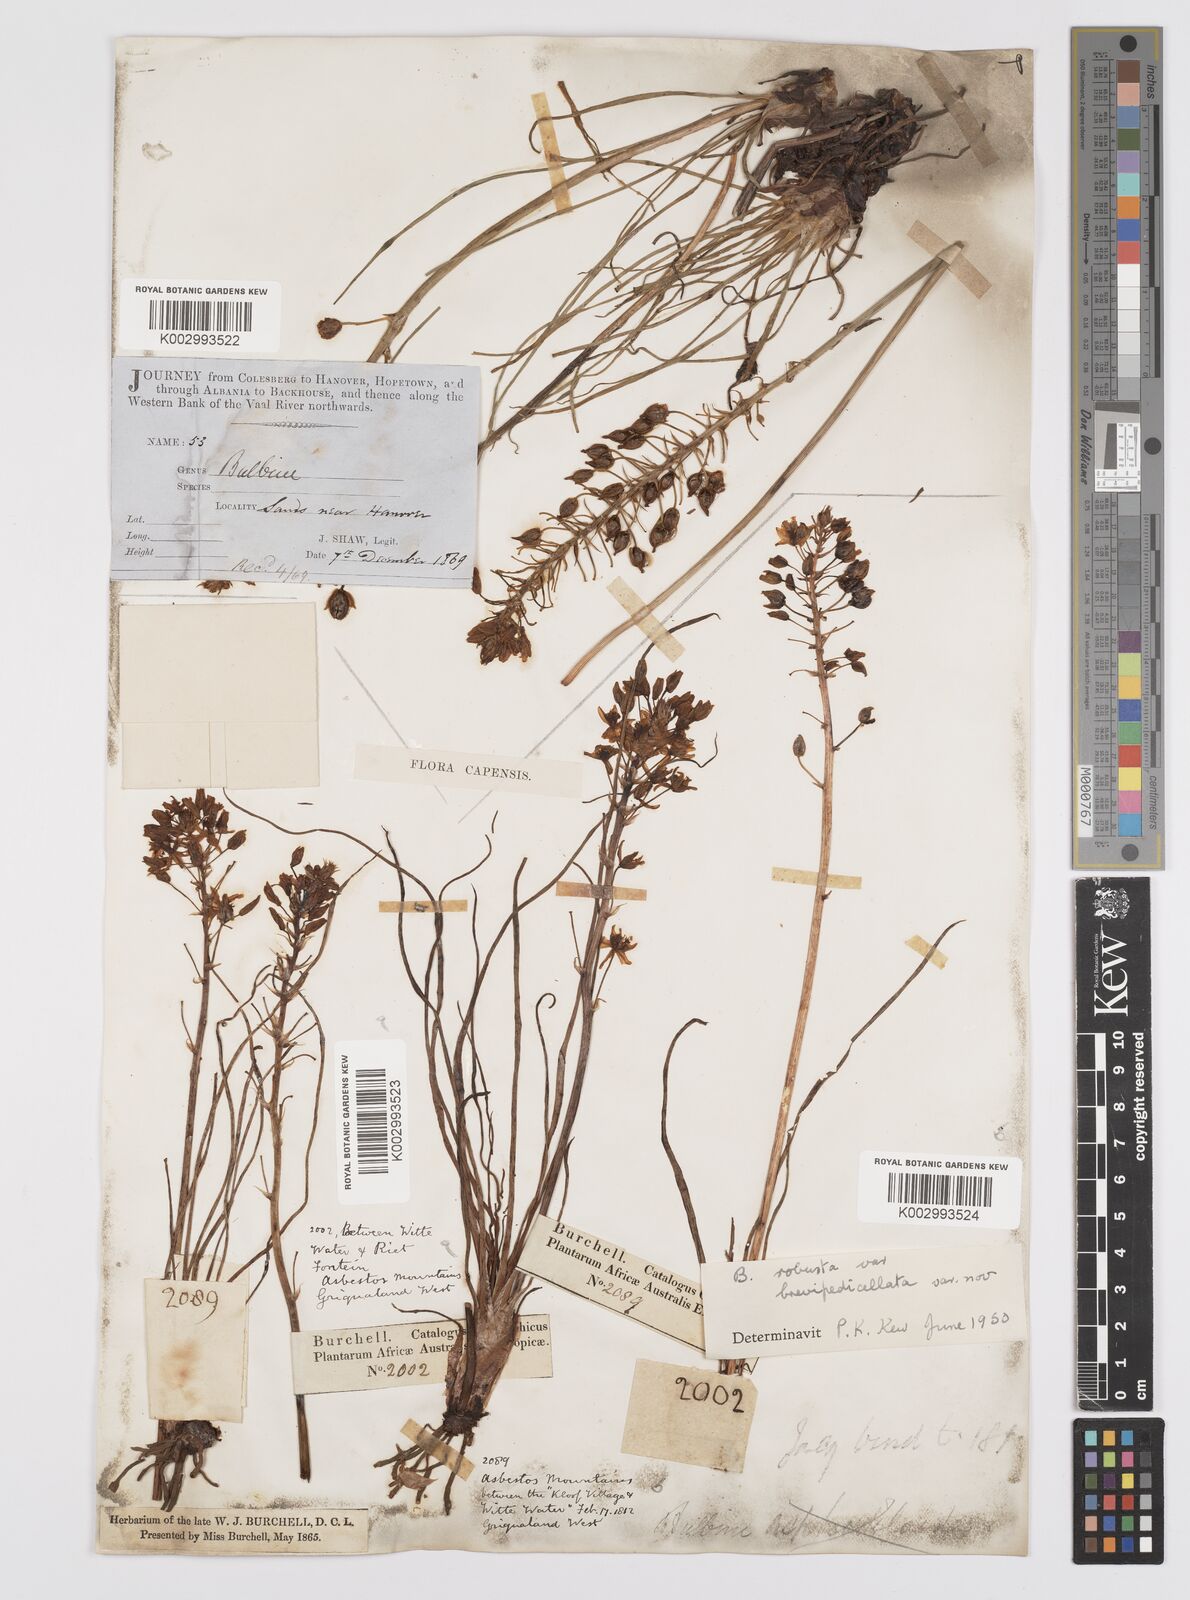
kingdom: Plantae
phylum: Tracheophyta
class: Liliopsida
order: Asparagales
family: Asphodelaceae
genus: Bulbine
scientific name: Bulbine asphodeloides
